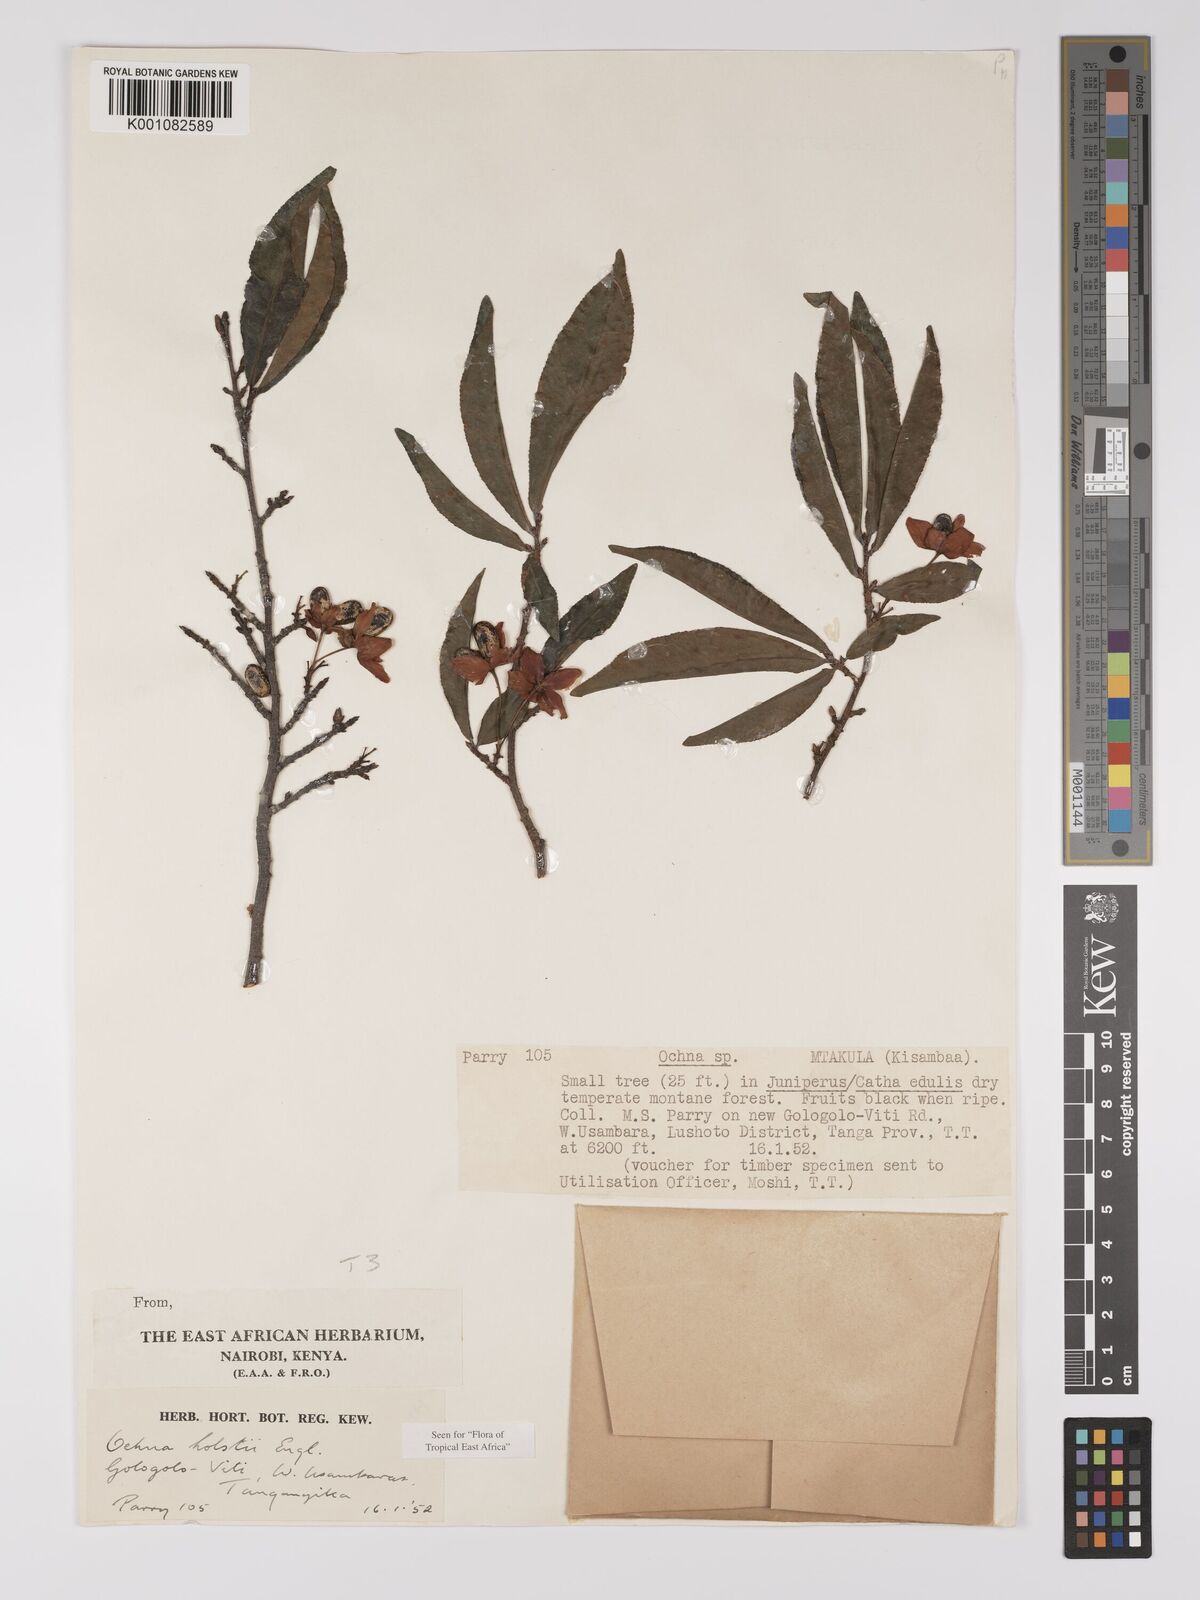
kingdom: Plantae
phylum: Tracheophyta
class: Magnoliopsida
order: Malpighiales
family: Ochnaceae
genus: Ochna
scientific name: Ochna holstii
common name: Red ironwood
